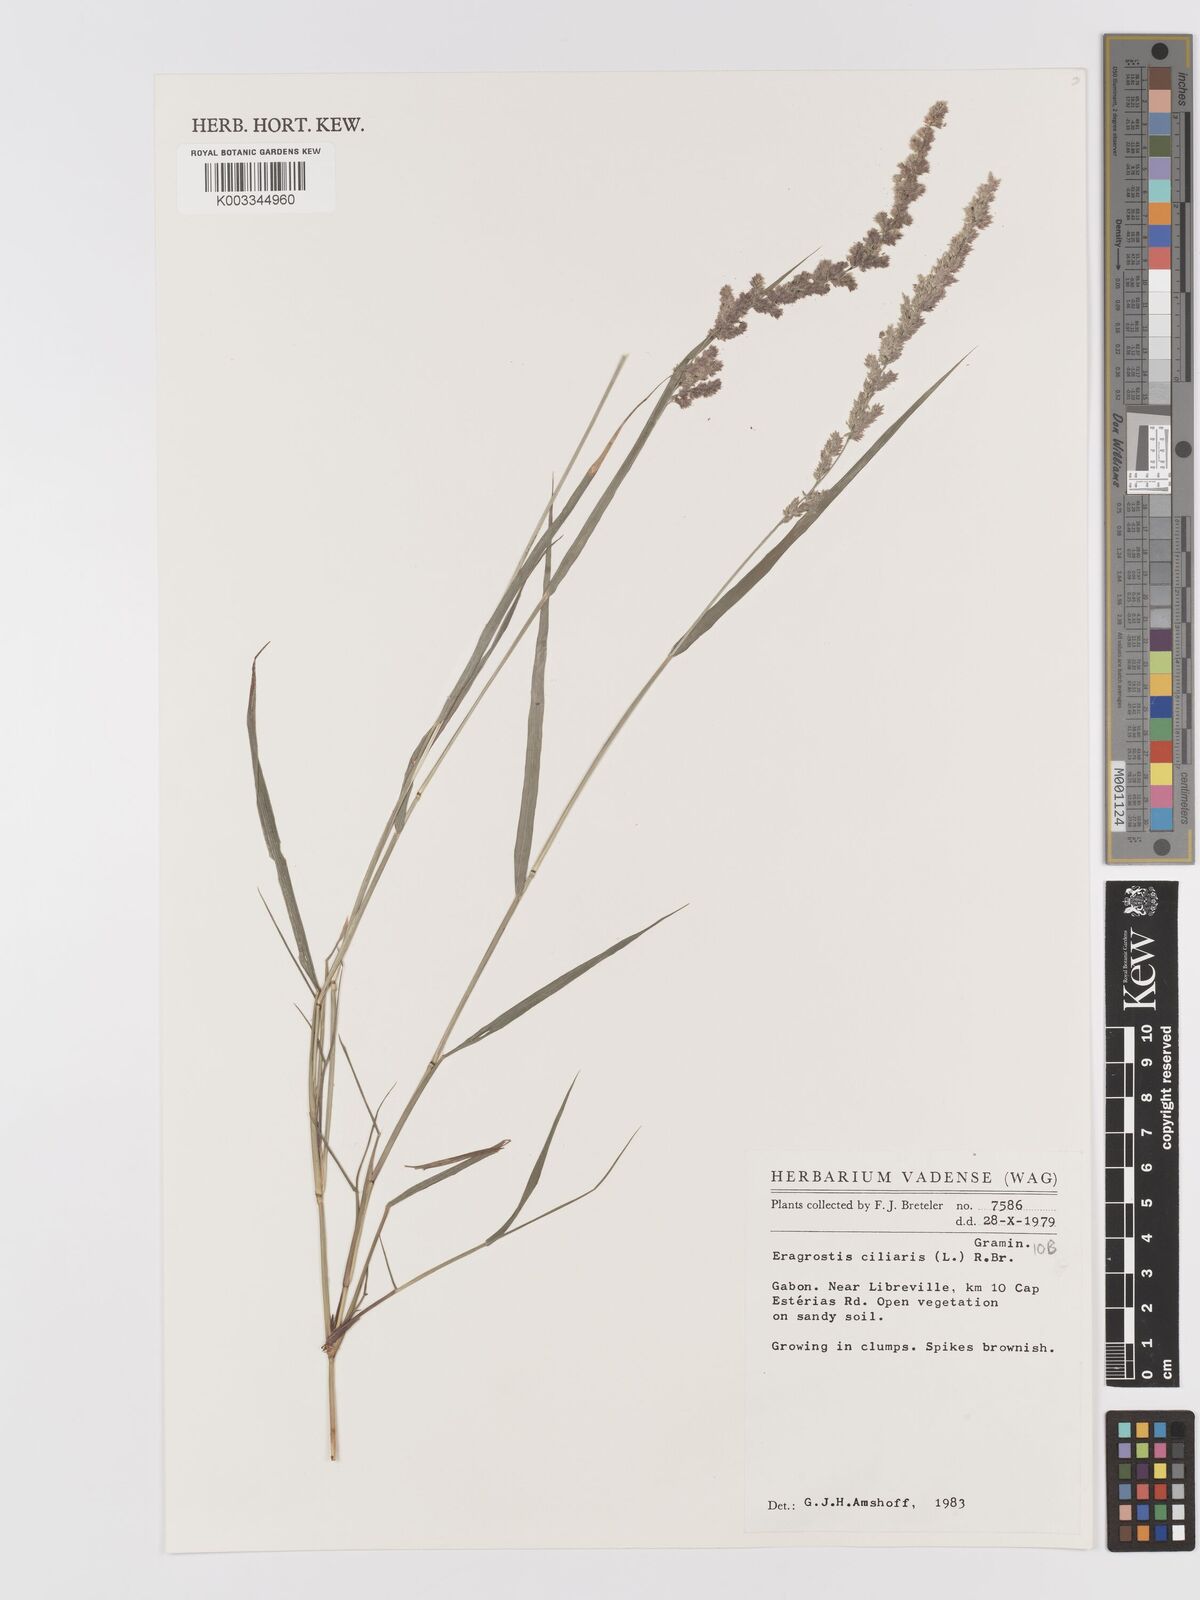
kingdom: Plantae
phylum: Tracheophyta
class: Liliopsida
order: Poales
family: Poaceae
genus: Eragrostis
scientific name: Eragrostis ciliaris
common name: Gophertail lovegrass
